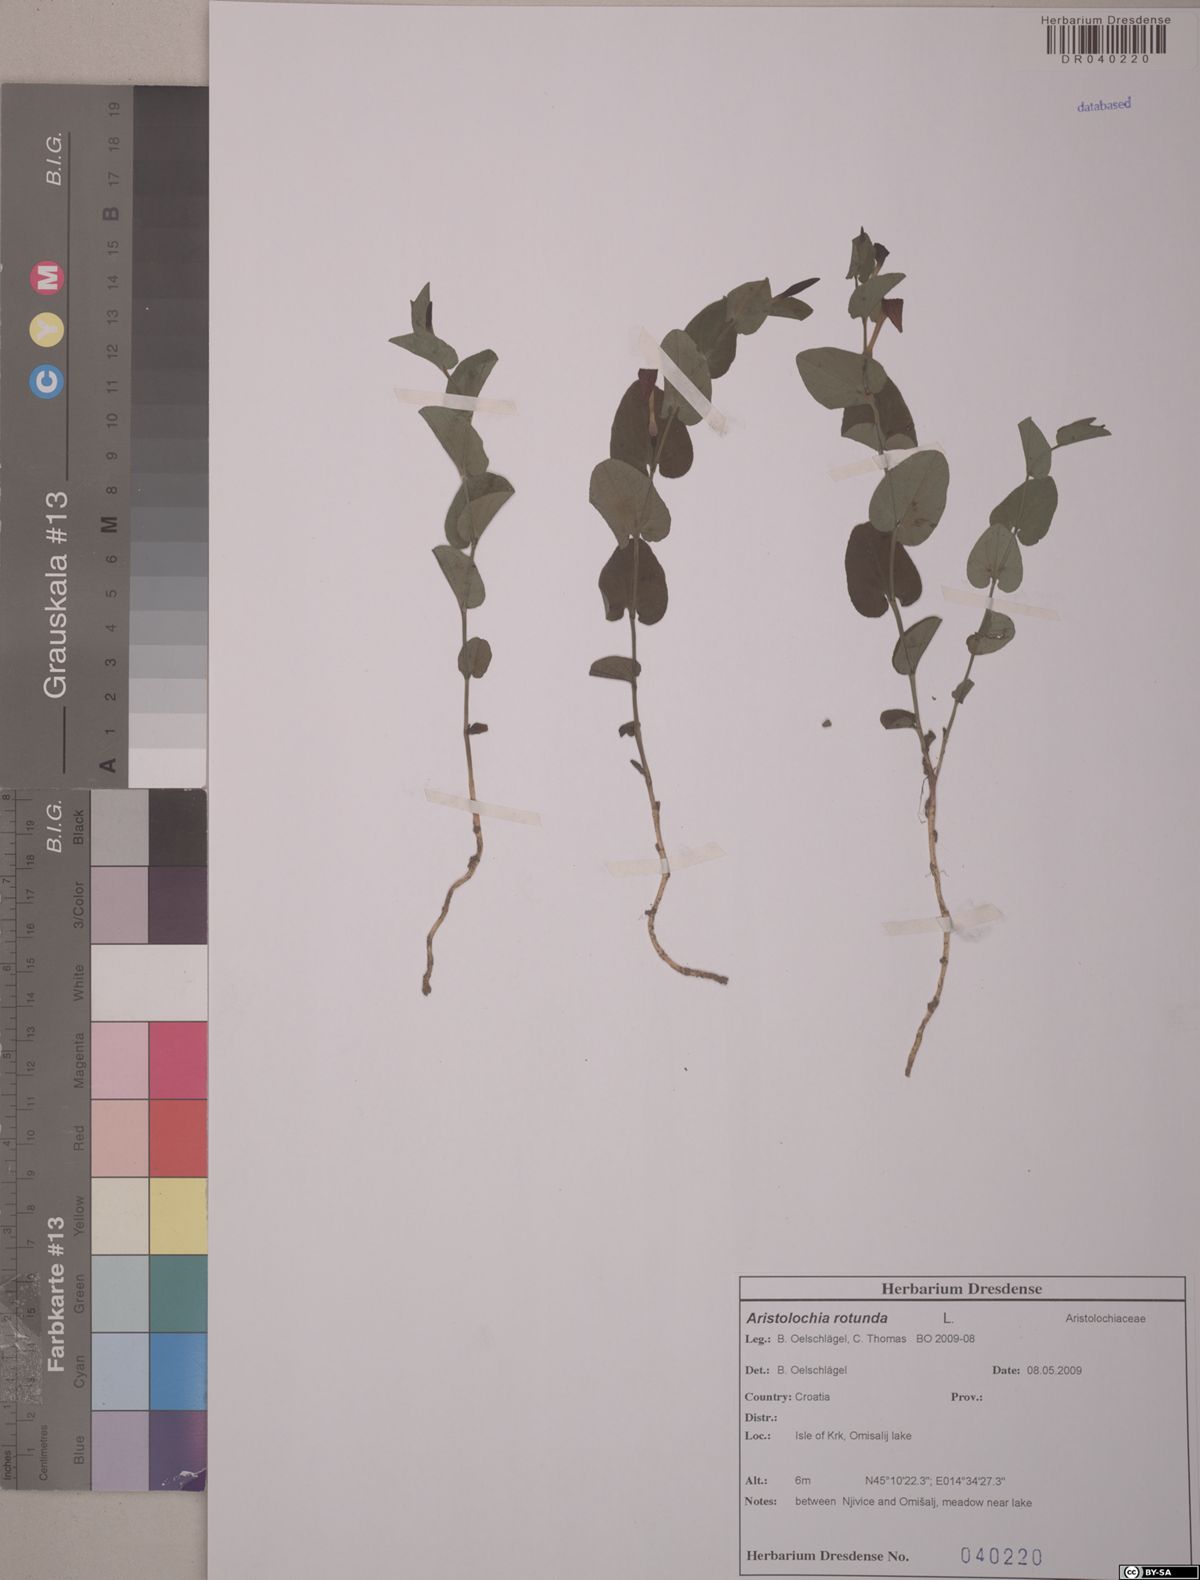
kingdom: Plantae
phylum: Tracheophyta
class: Magnoliopsida
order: Piperales
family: Aristolochiaceae
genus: Aristolochia
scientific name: Aristolochia rotunda
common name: Smearwort
